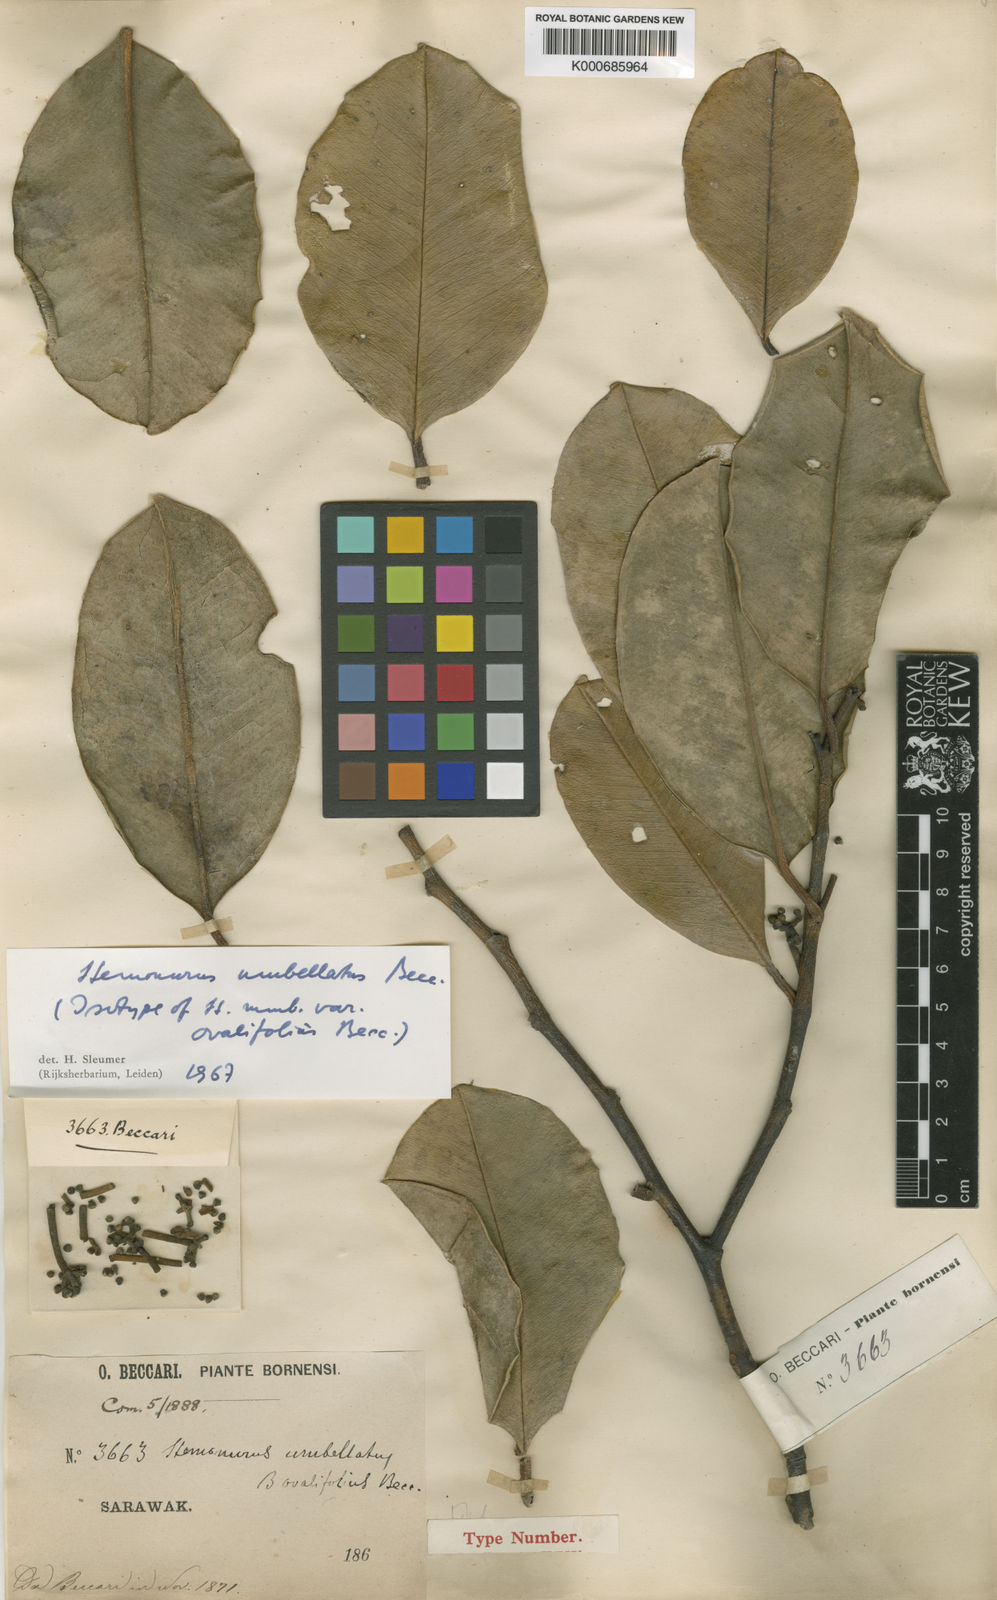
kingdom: Plantae
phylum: Tracheophyta
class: Magnoliopsida
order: Cardiopteridales
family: Stemonuraceae
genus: Stemonurus
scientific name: Stemonurus umbellatus
